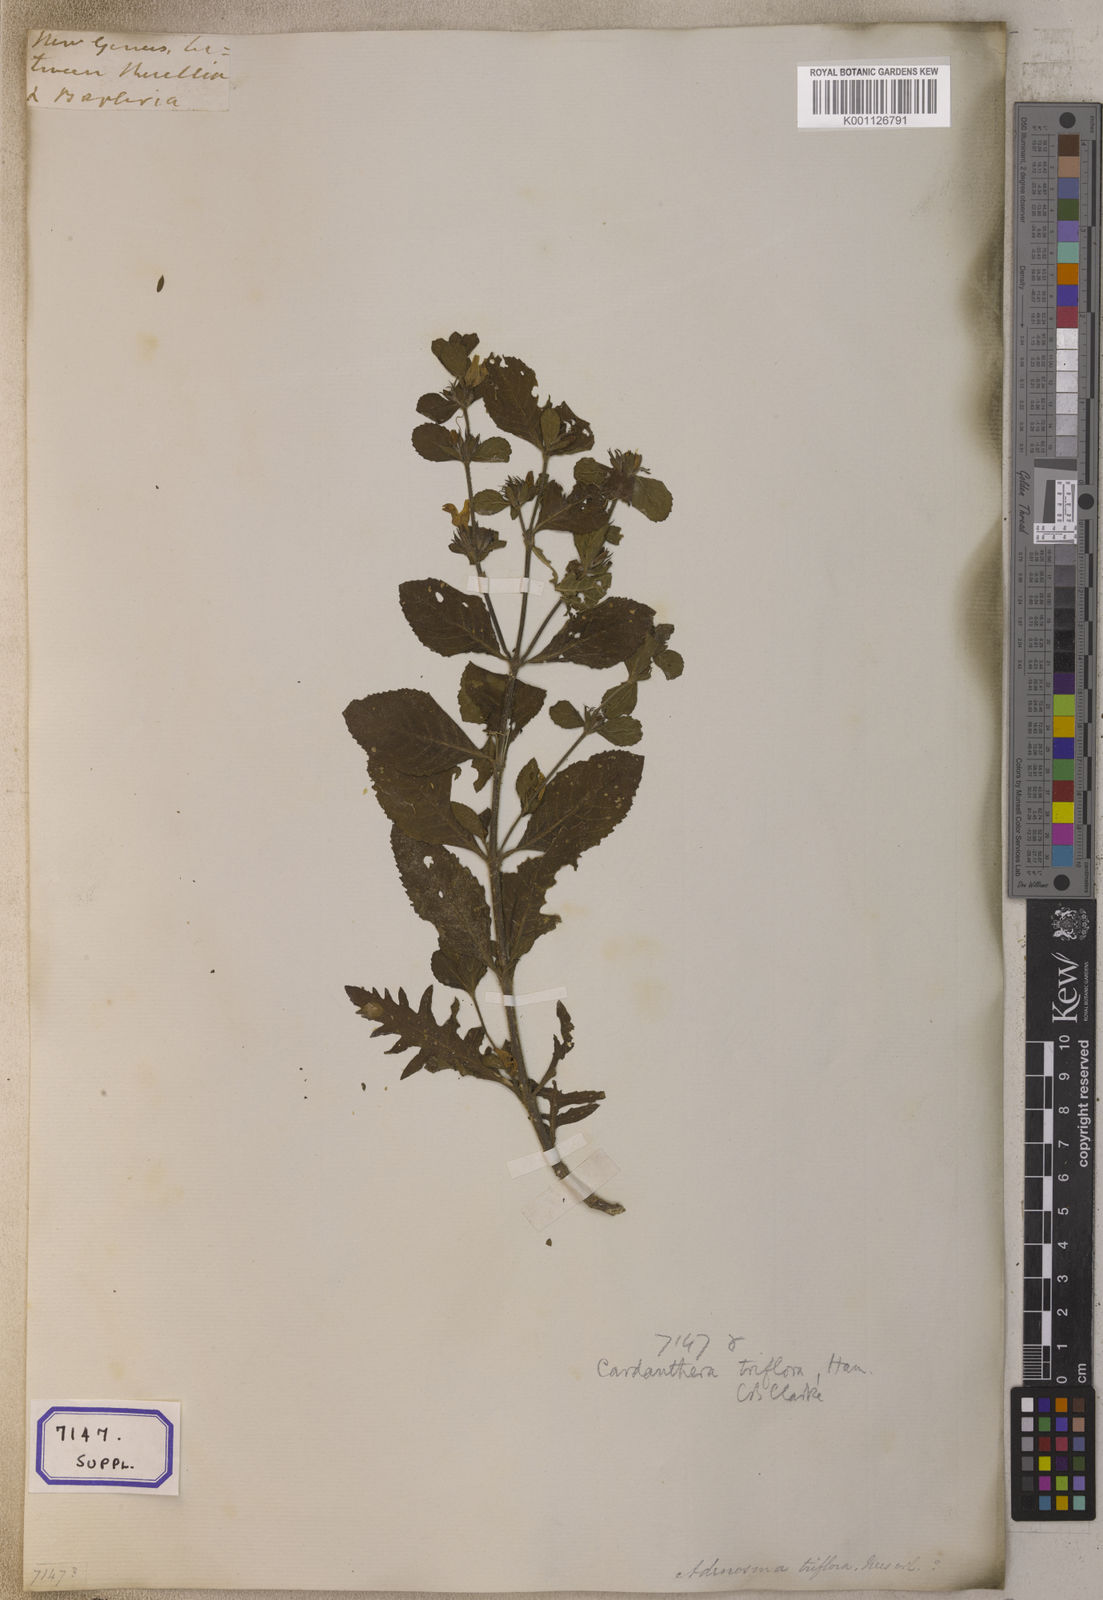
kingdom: Plantae
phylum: Tracheophyta
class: Magnoliopsida
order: Lamiales
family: Plantaginaceae
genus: Adenosma
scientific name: Adenosma
